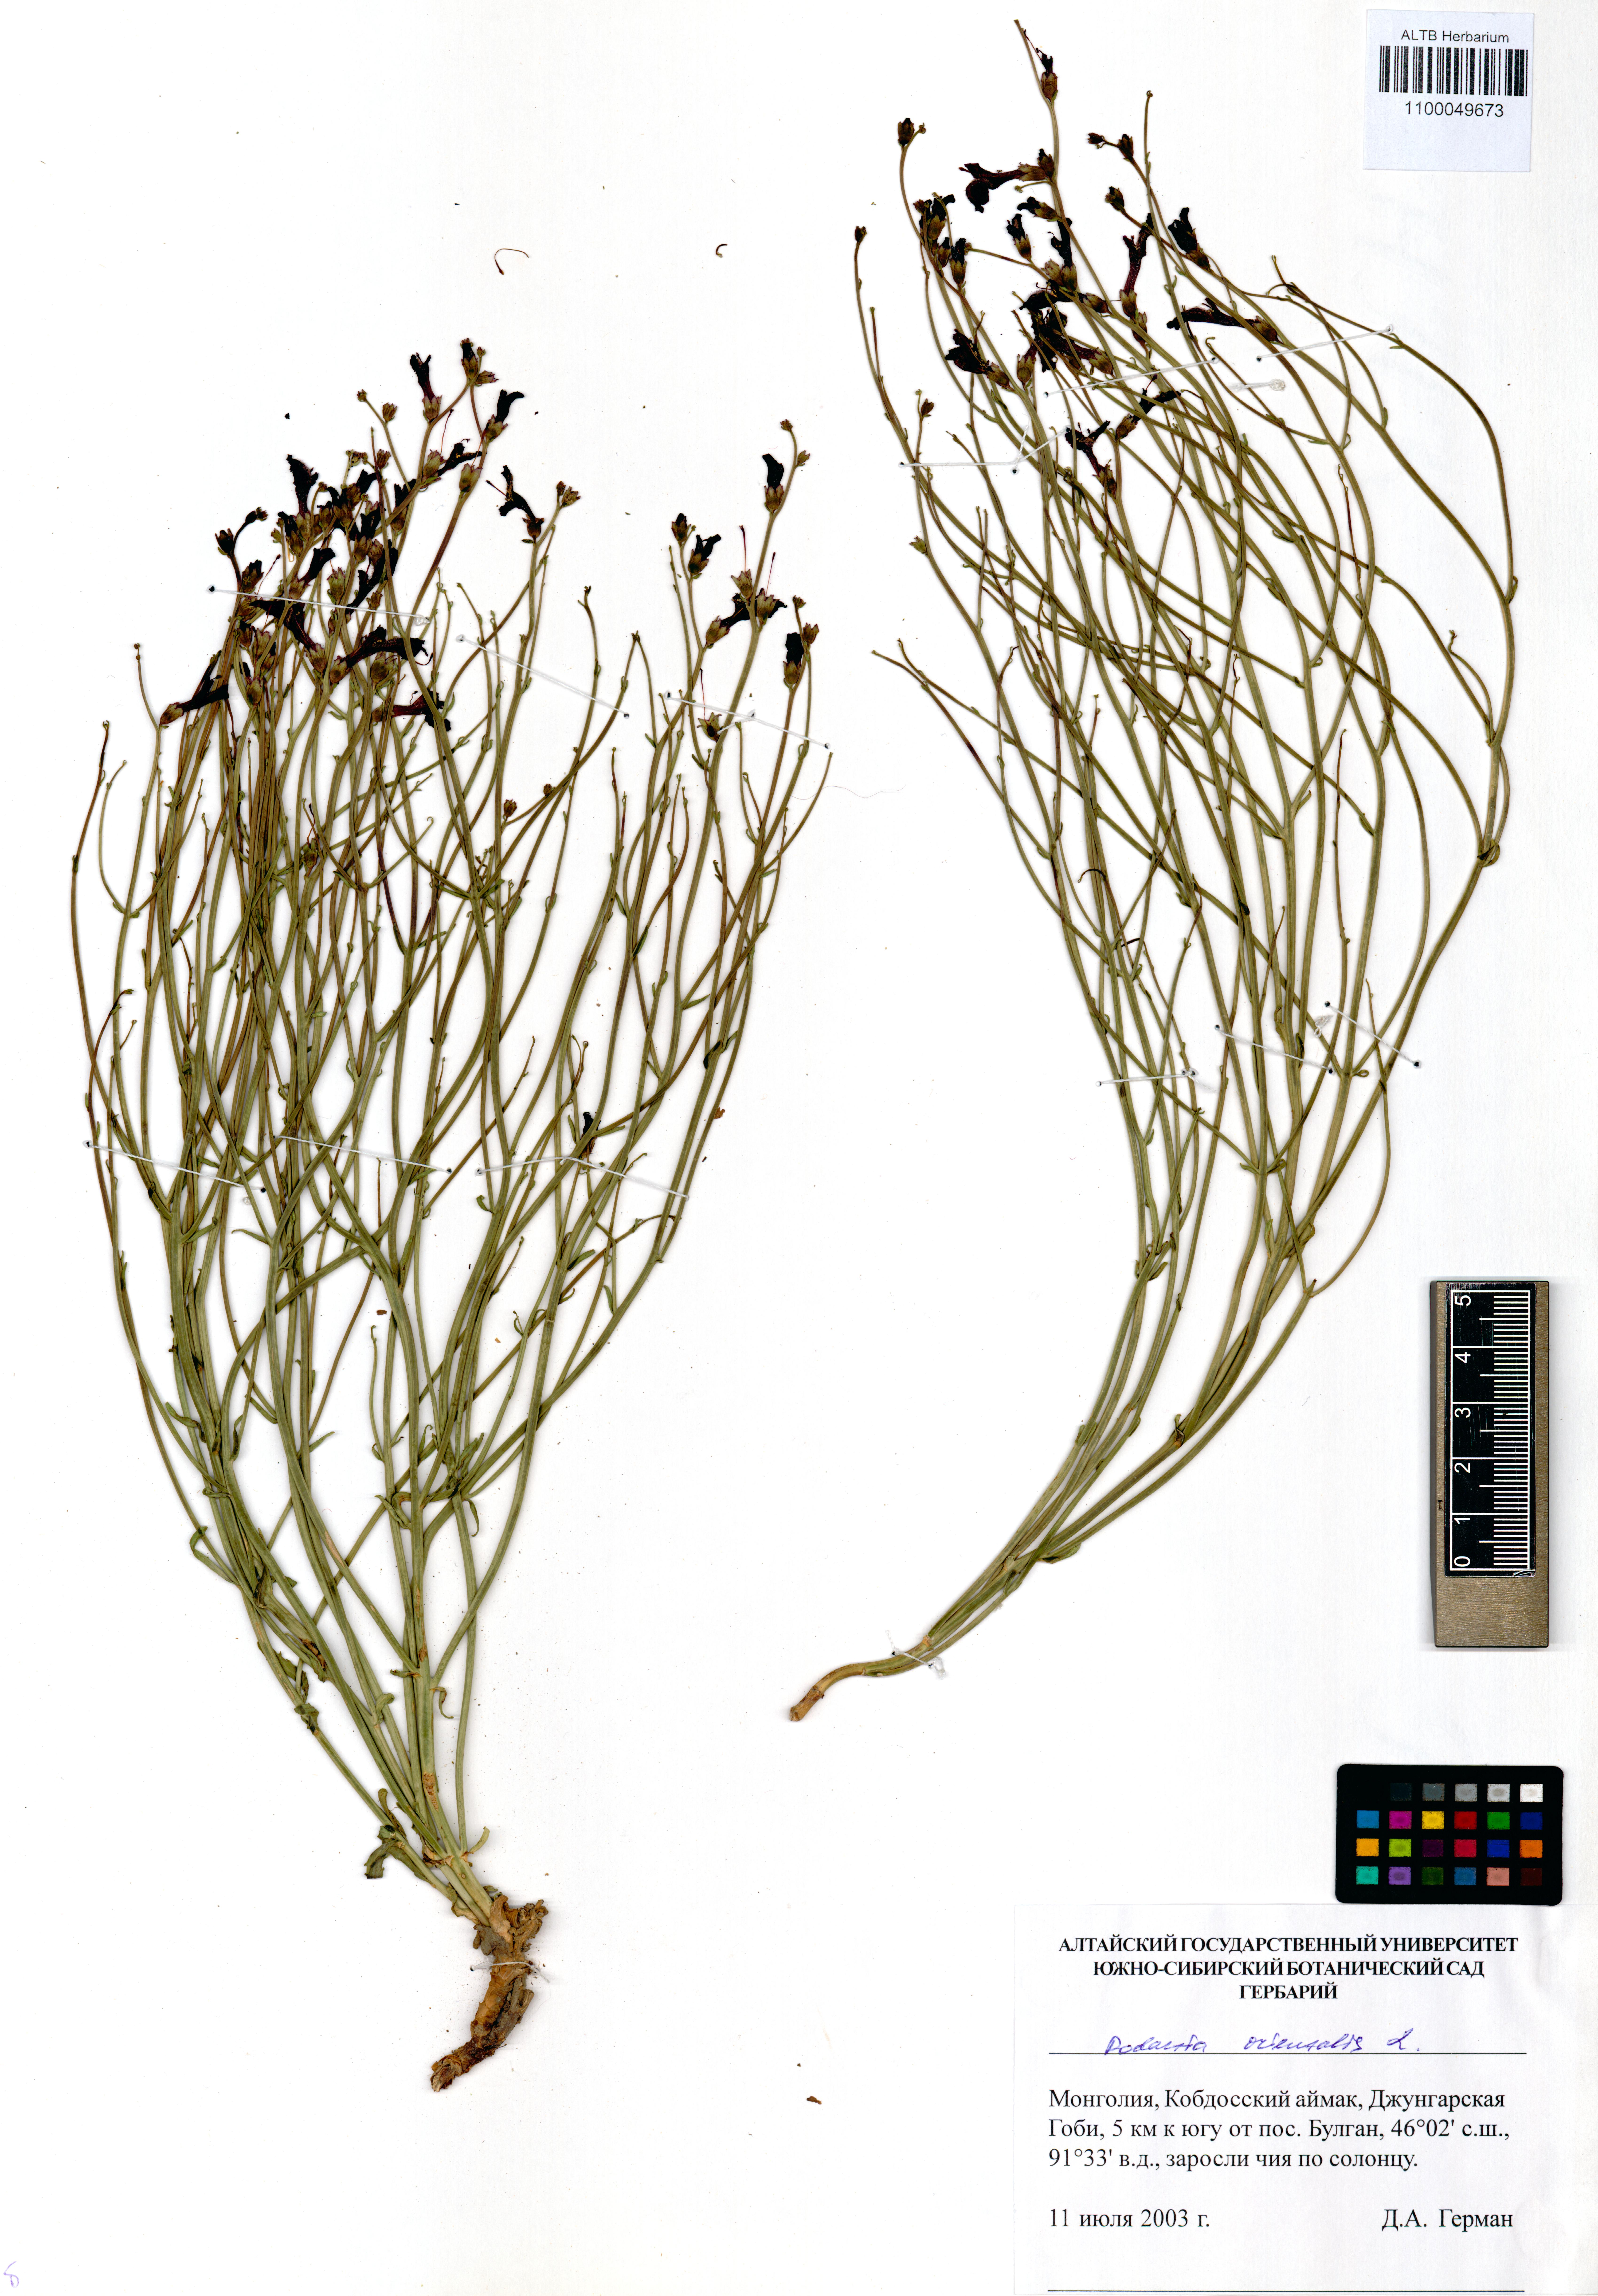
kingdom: Plantae
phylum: Tracheophyta
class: Magnoliopsida
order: Lamiales
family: Mazaceae
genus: Dodartia
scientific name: Dodartia orientalis
